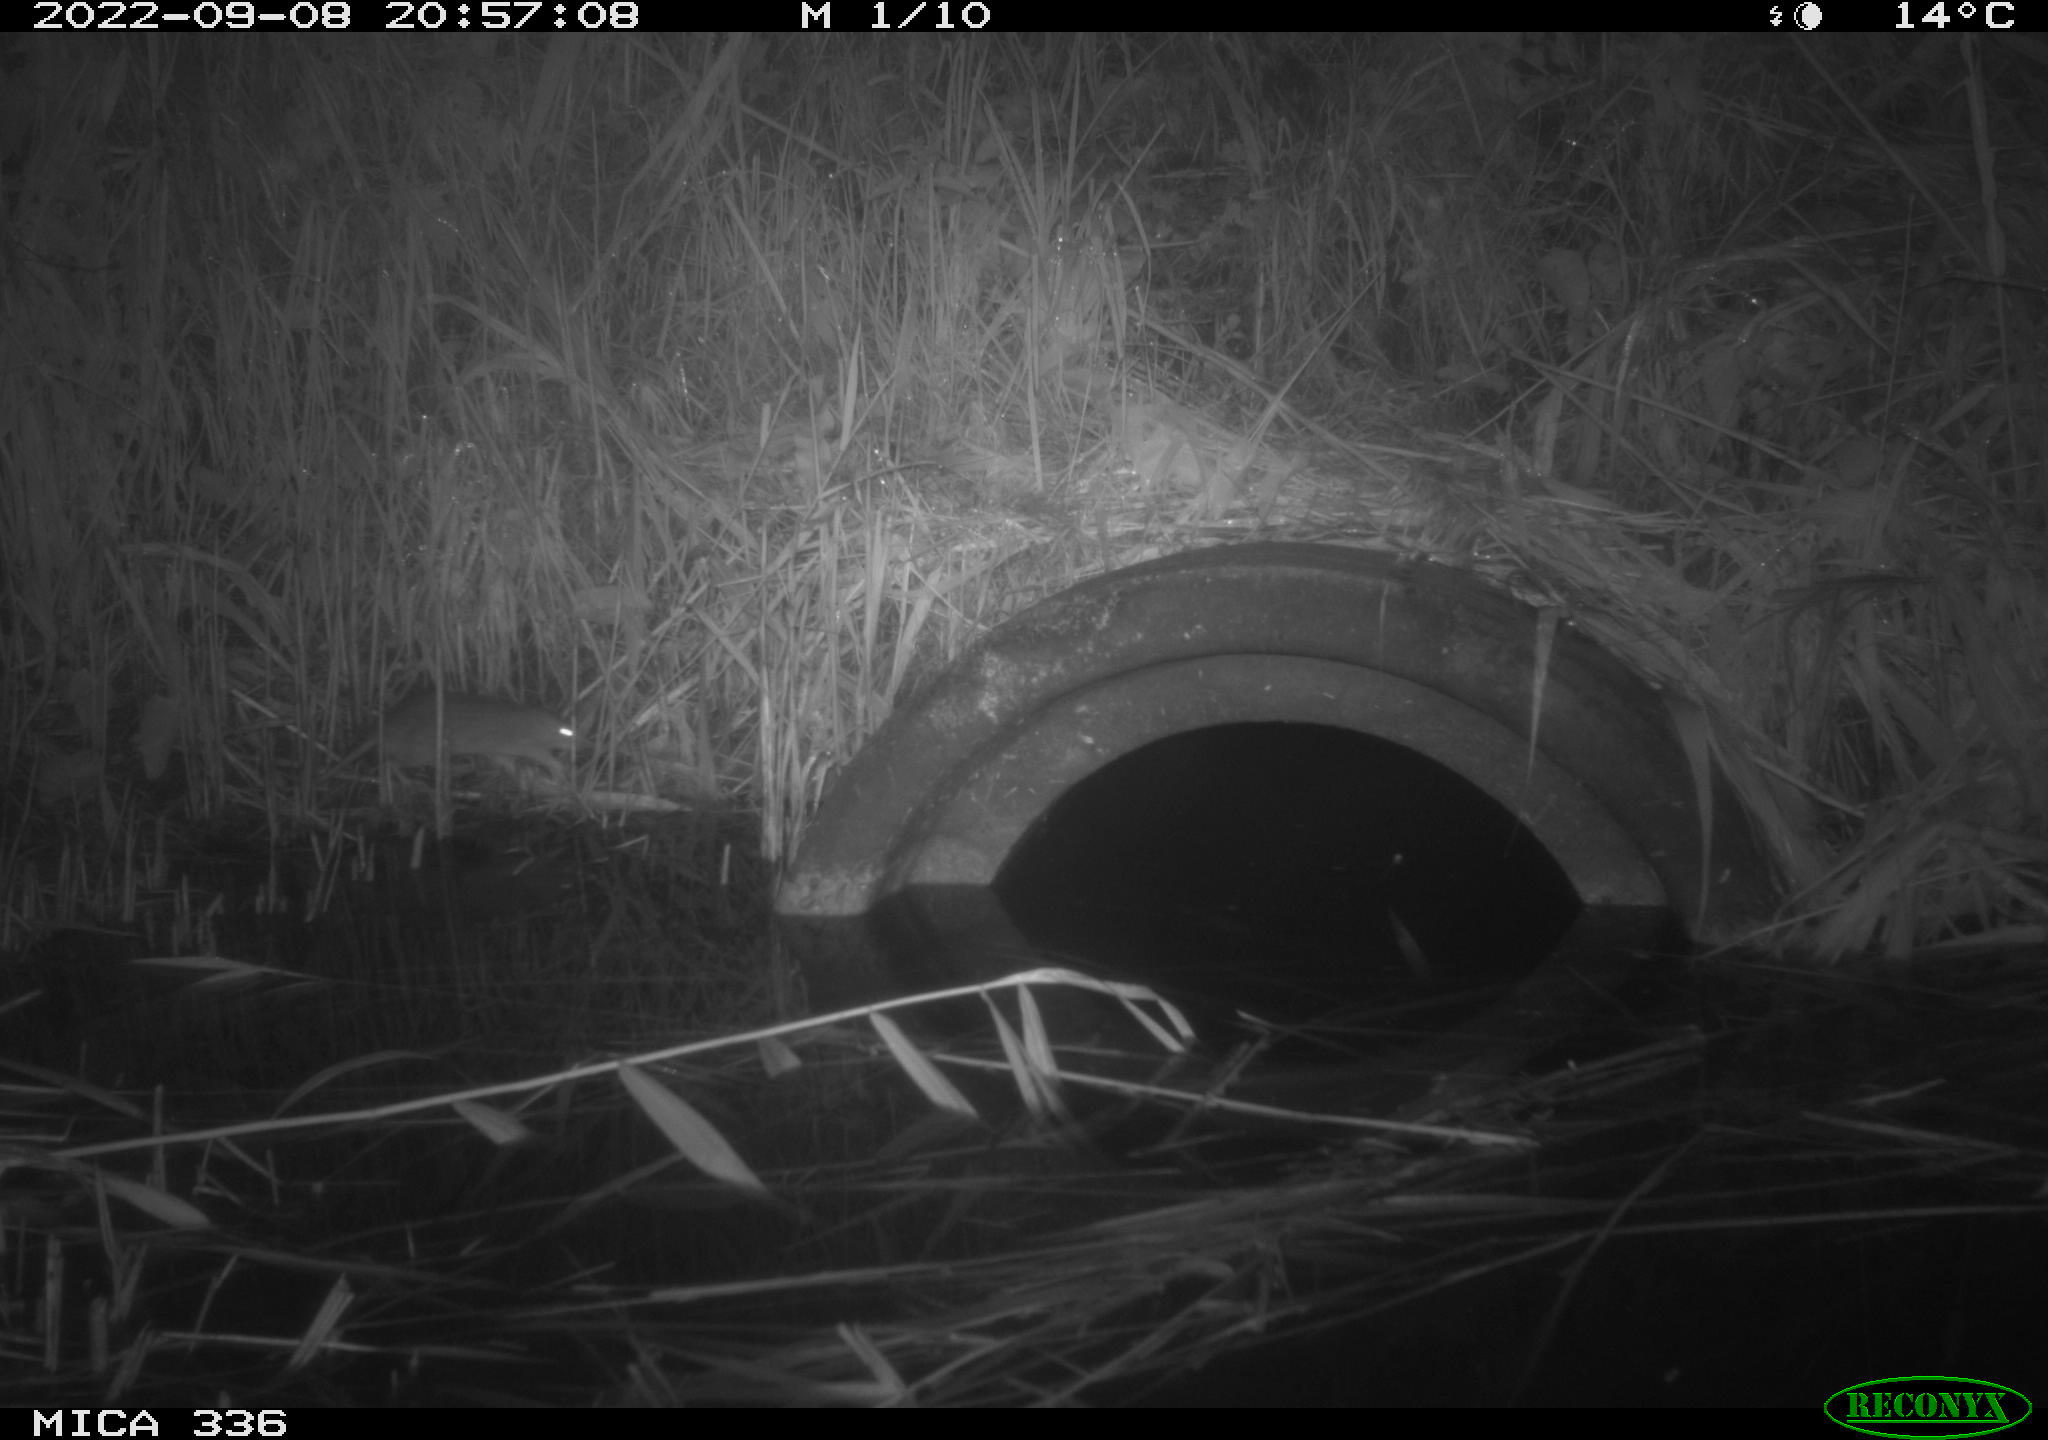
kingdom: Animalia
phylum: Chordata
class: Mammalia
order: Rodentia
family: Muridae
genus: Rattus
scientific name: Rattus norvegicus
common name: Brown rat
